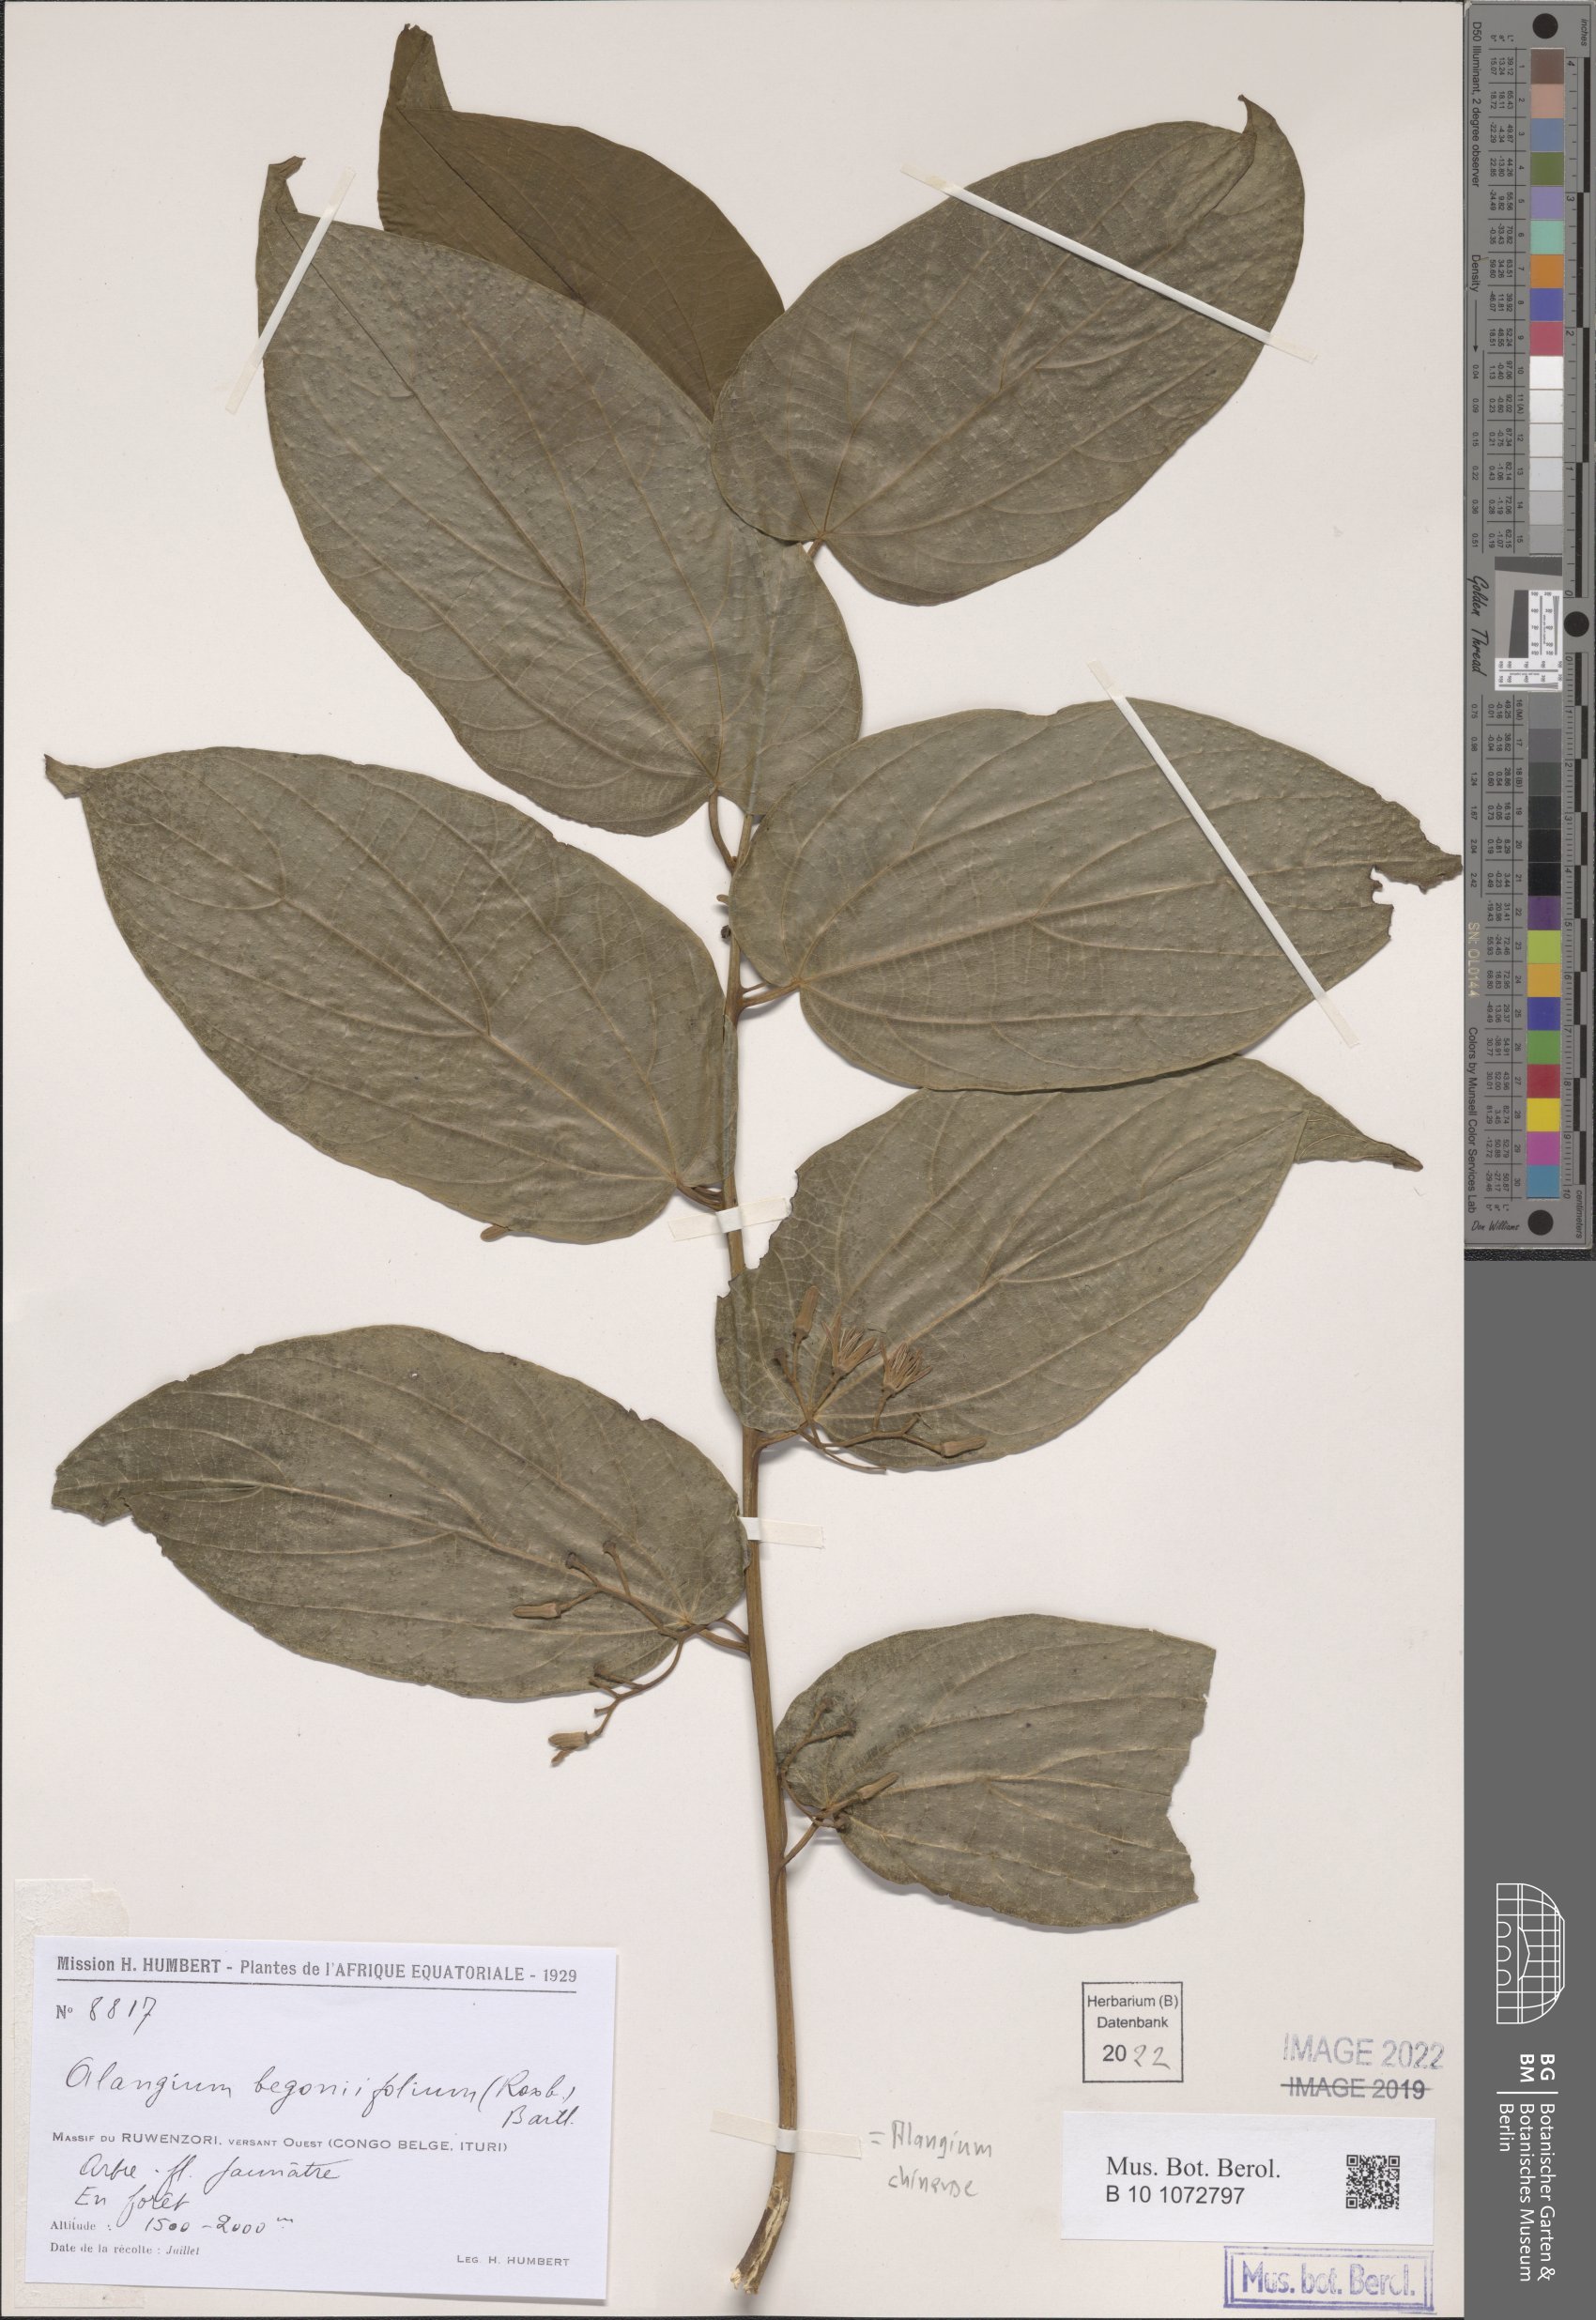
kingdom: Plantae
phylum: Tracheophyta
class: Magnoliopsida
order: Cornales
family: Cornaceae
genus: Alangium
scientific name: Alangium chinense
